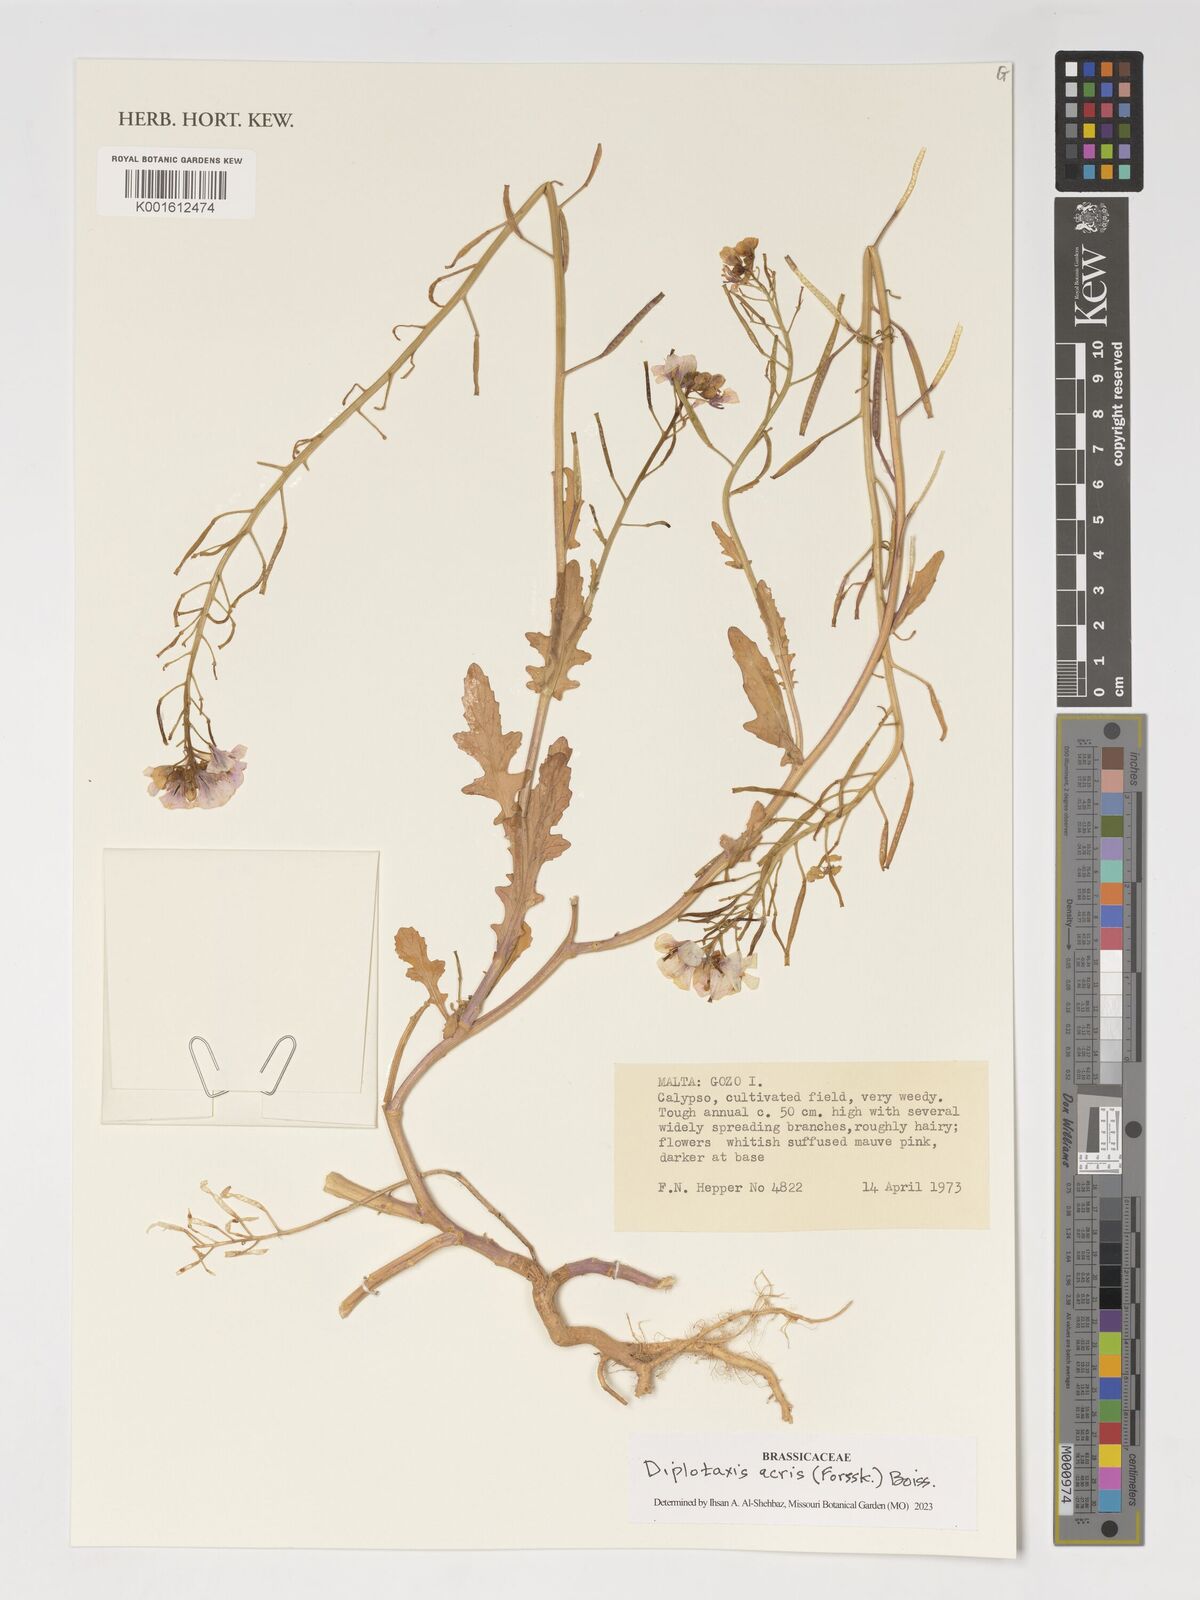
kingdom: Plantae
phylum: Tracheophyta
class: Magnoliopsida
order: Brassicales
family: Brassicaceae
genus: Diplotaxis
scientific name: Diplotaxis acris
